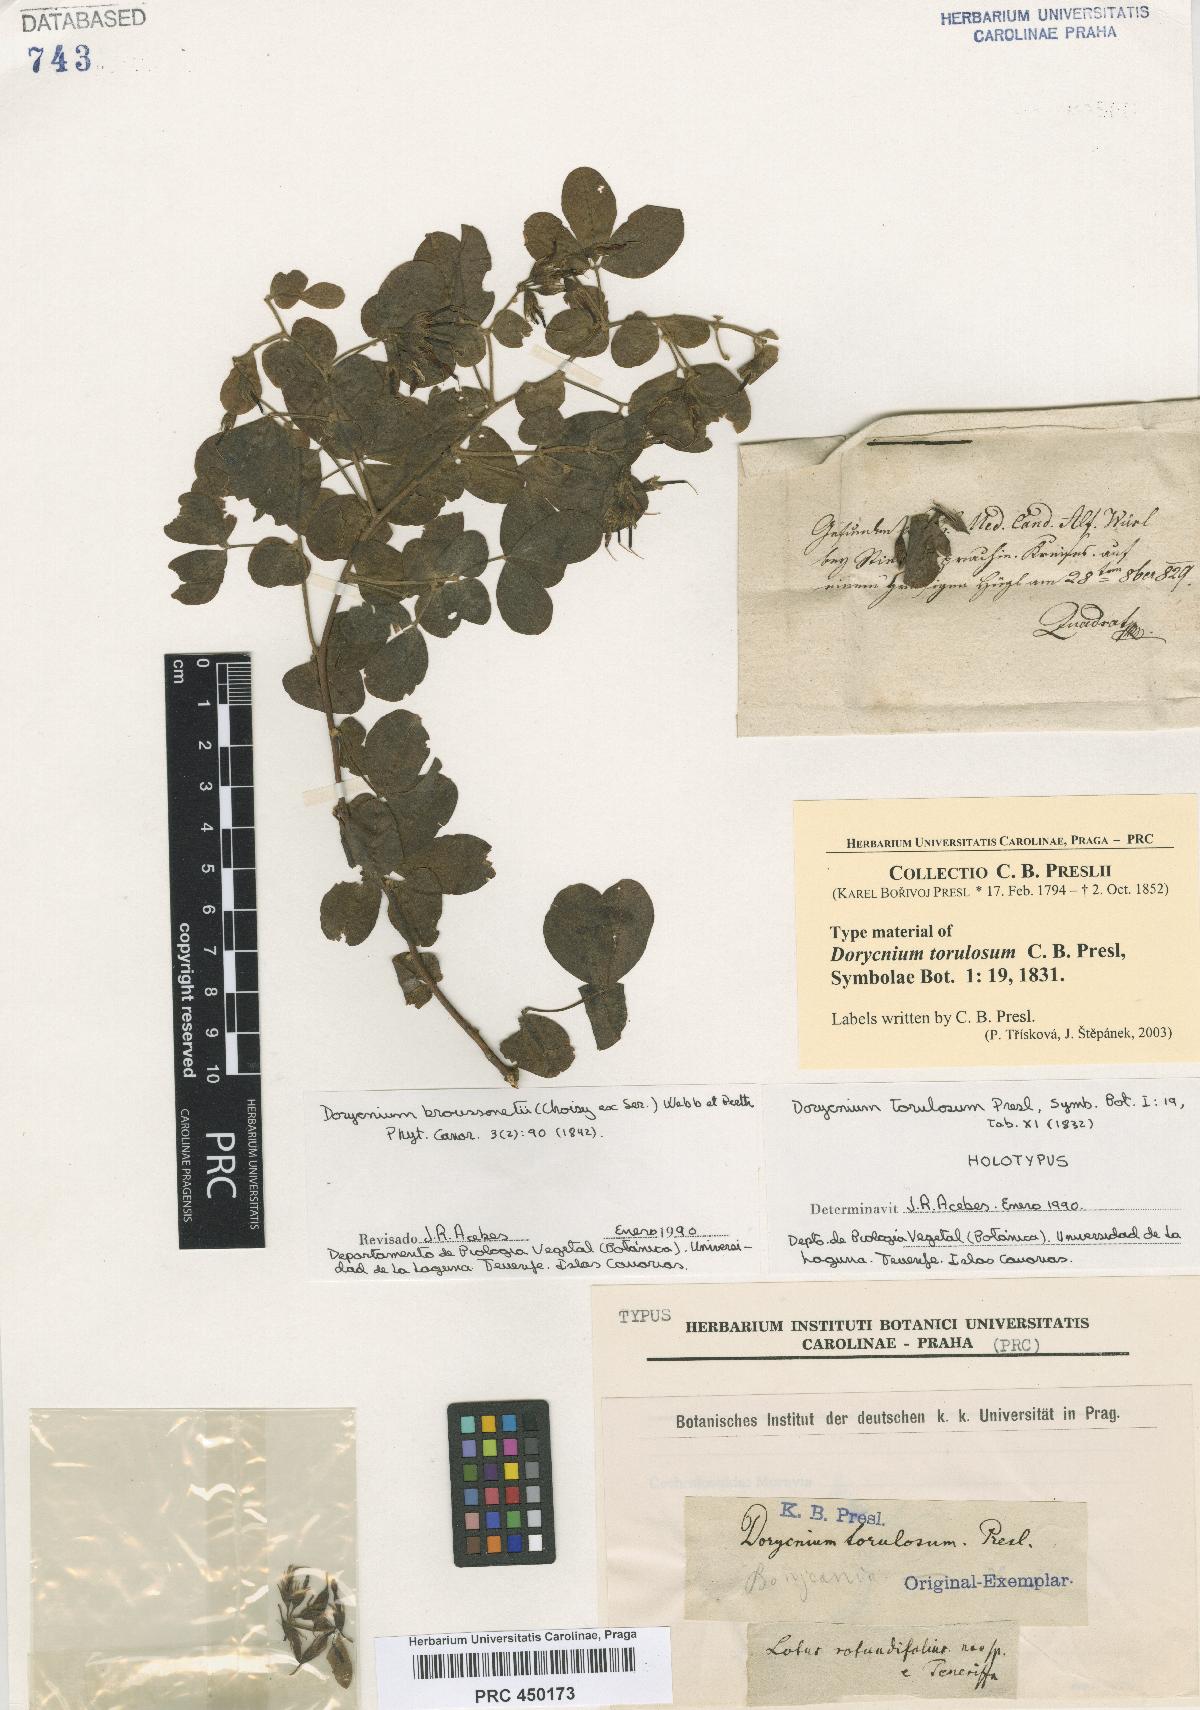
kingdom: Plantae
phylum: Tracheophyta
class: Magnoliopsida
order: Fabales
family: Fabaceae
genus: Lotus
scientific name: Lotus broussonetii
